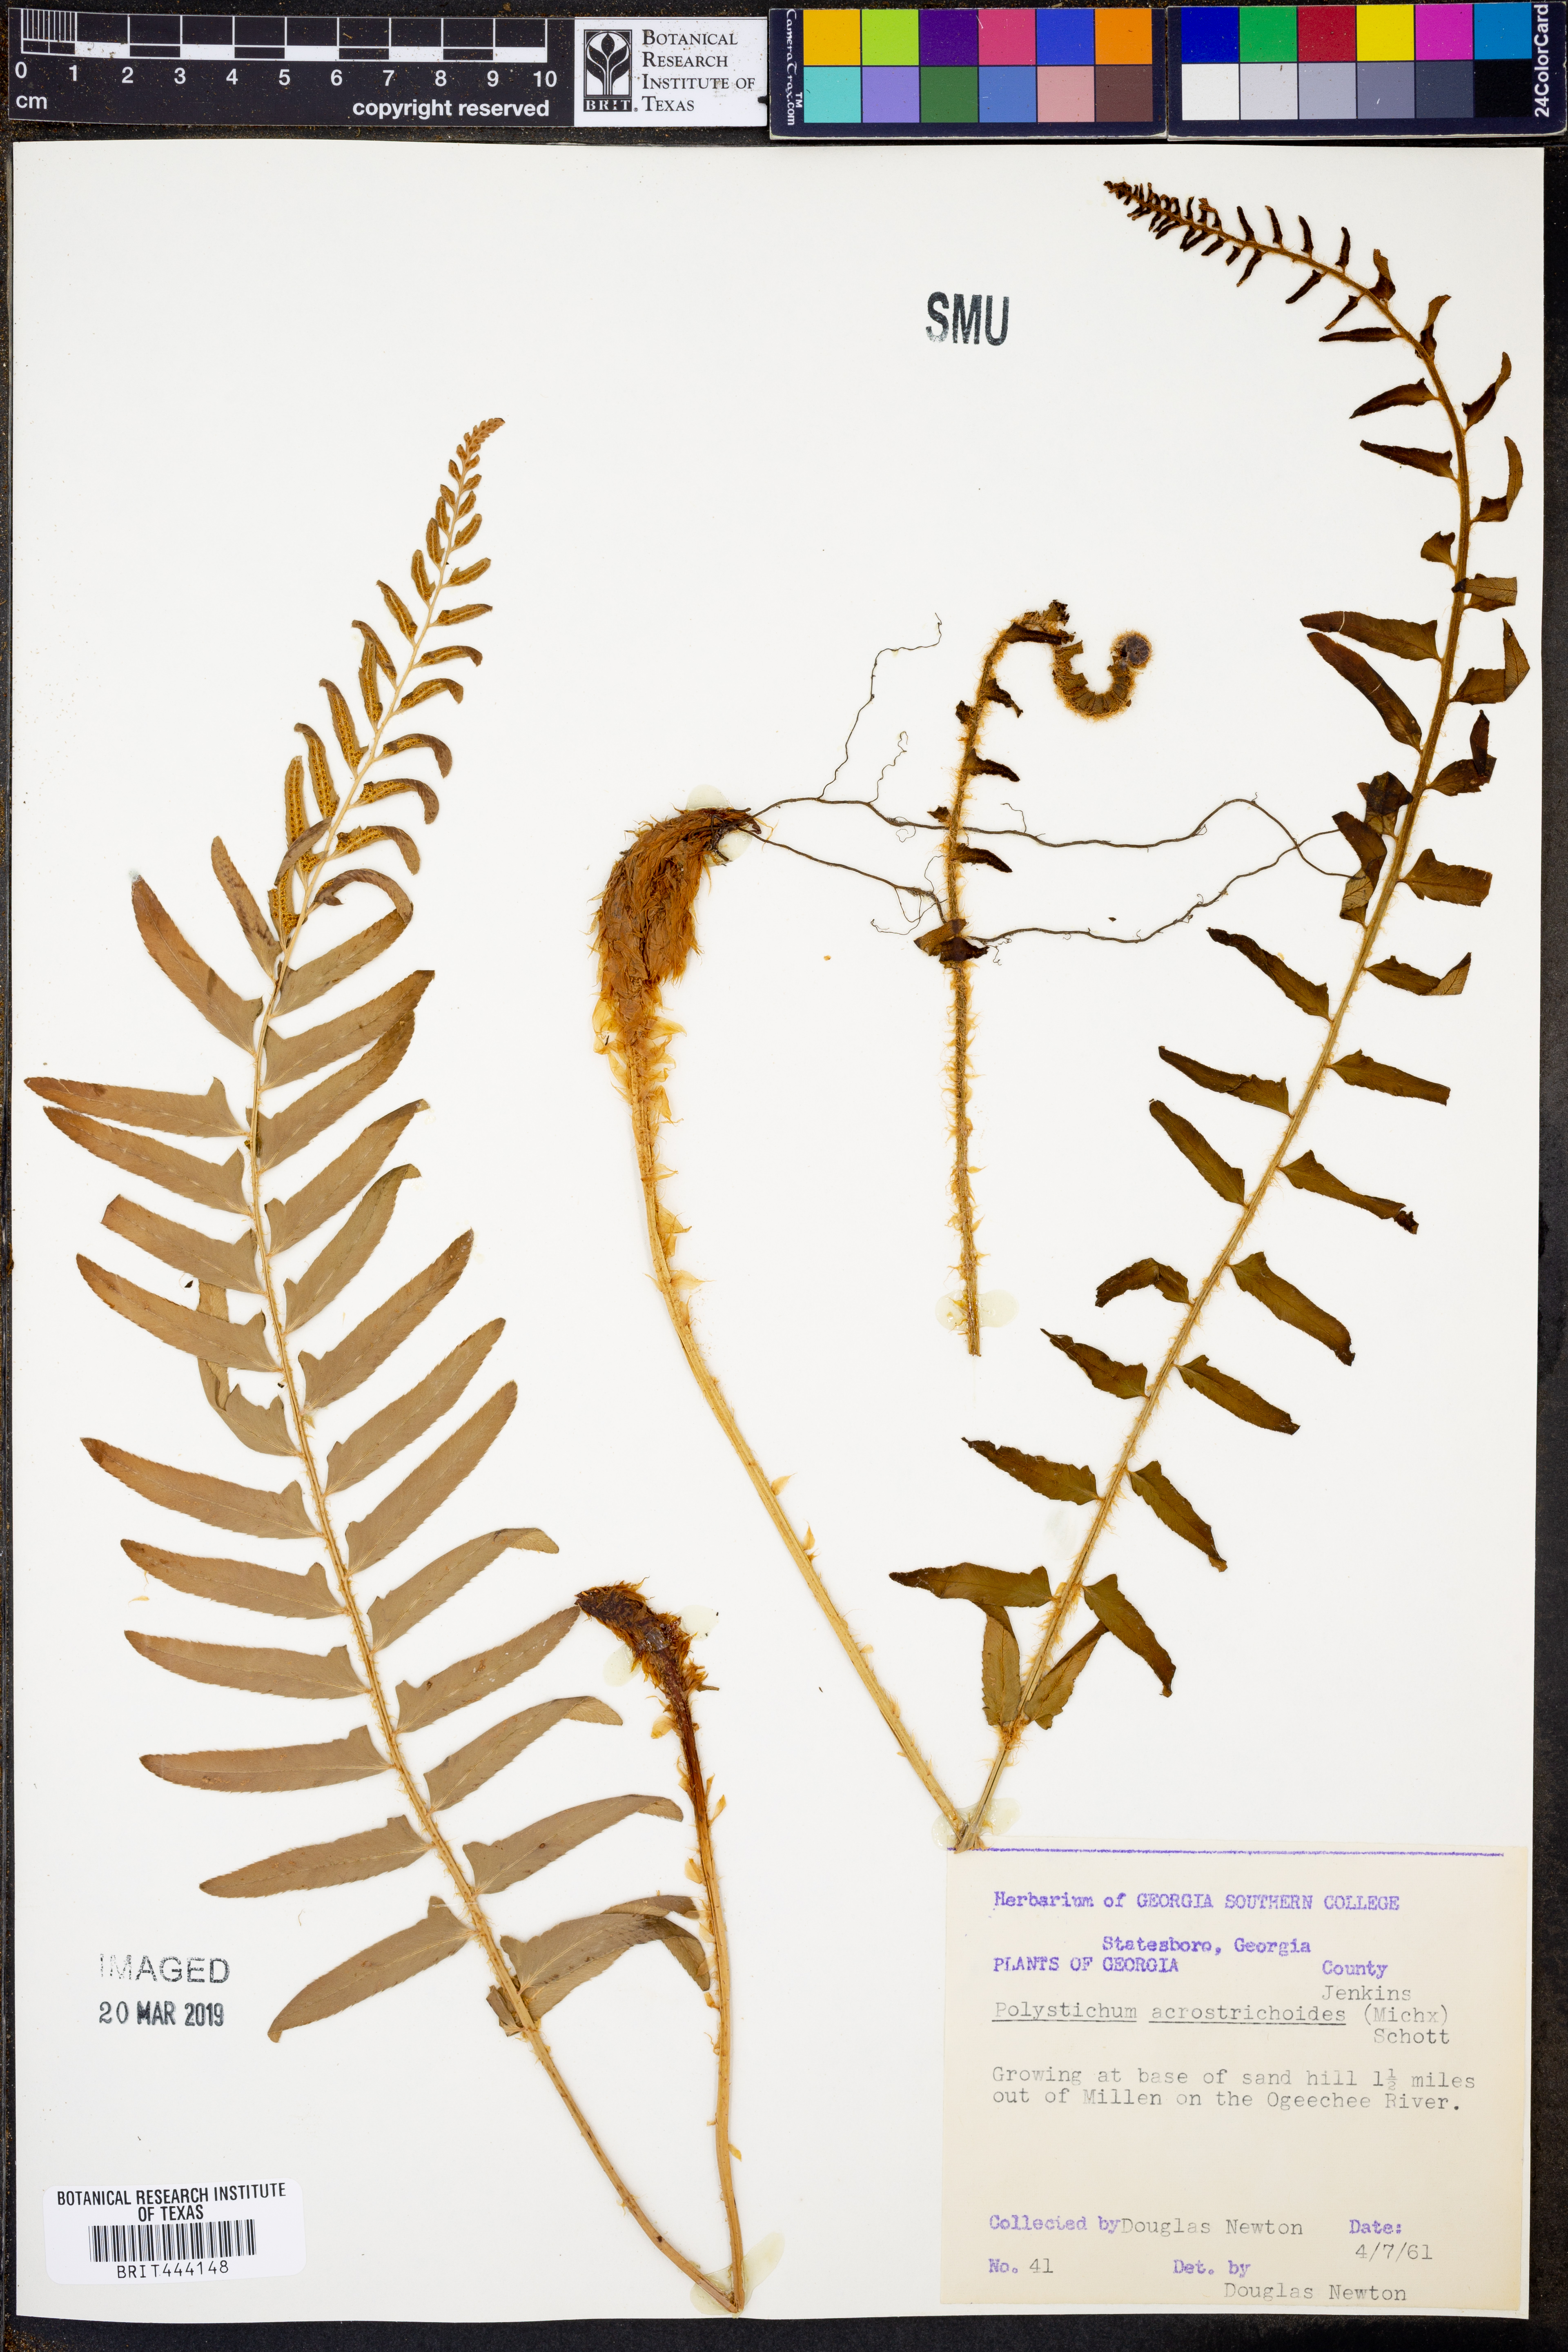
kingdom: Plantae
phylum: Tracheophyta
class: Polypodiopsida
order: Polypodiales
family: Dryopteridaceae
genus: Polystichum
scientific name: Polystichum acrostichoides
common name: Christmas fern
